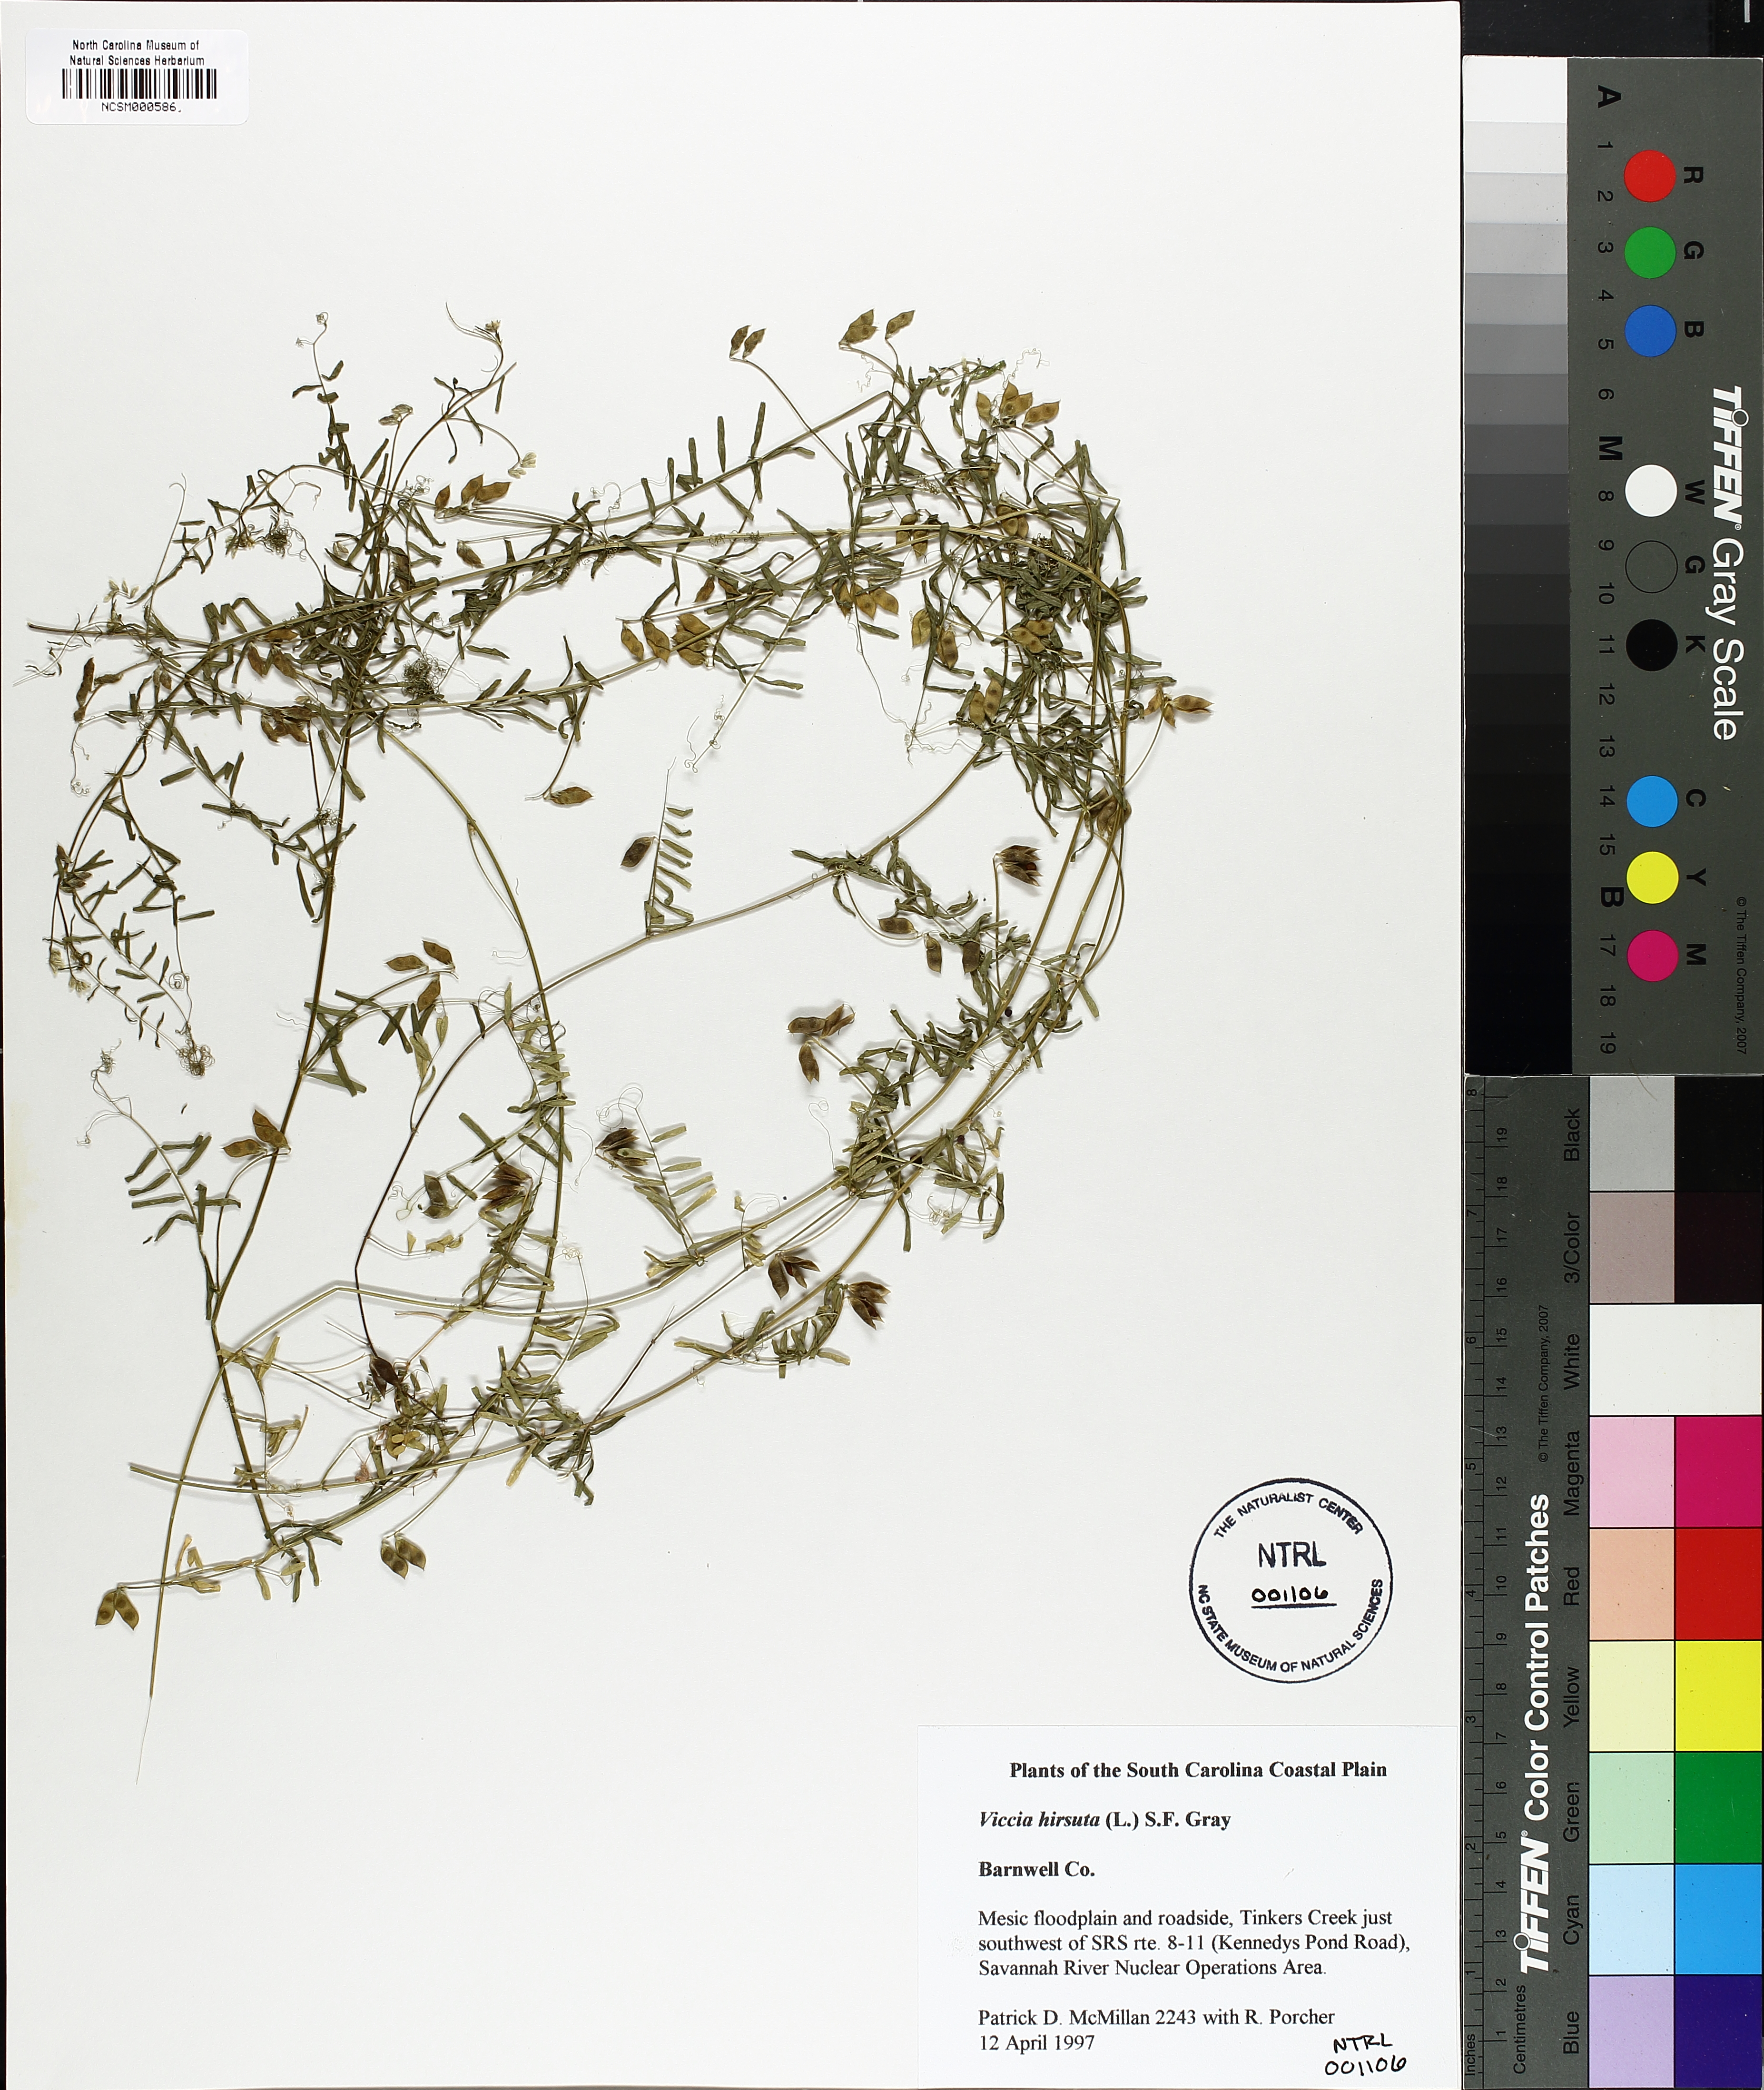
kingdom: Plantae
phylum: Tracheophyta
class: Magnoliopsida
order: Fabales
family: Fabaceae
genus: Vicia
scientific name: Vicia hirsuta
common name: Tiny vetch
